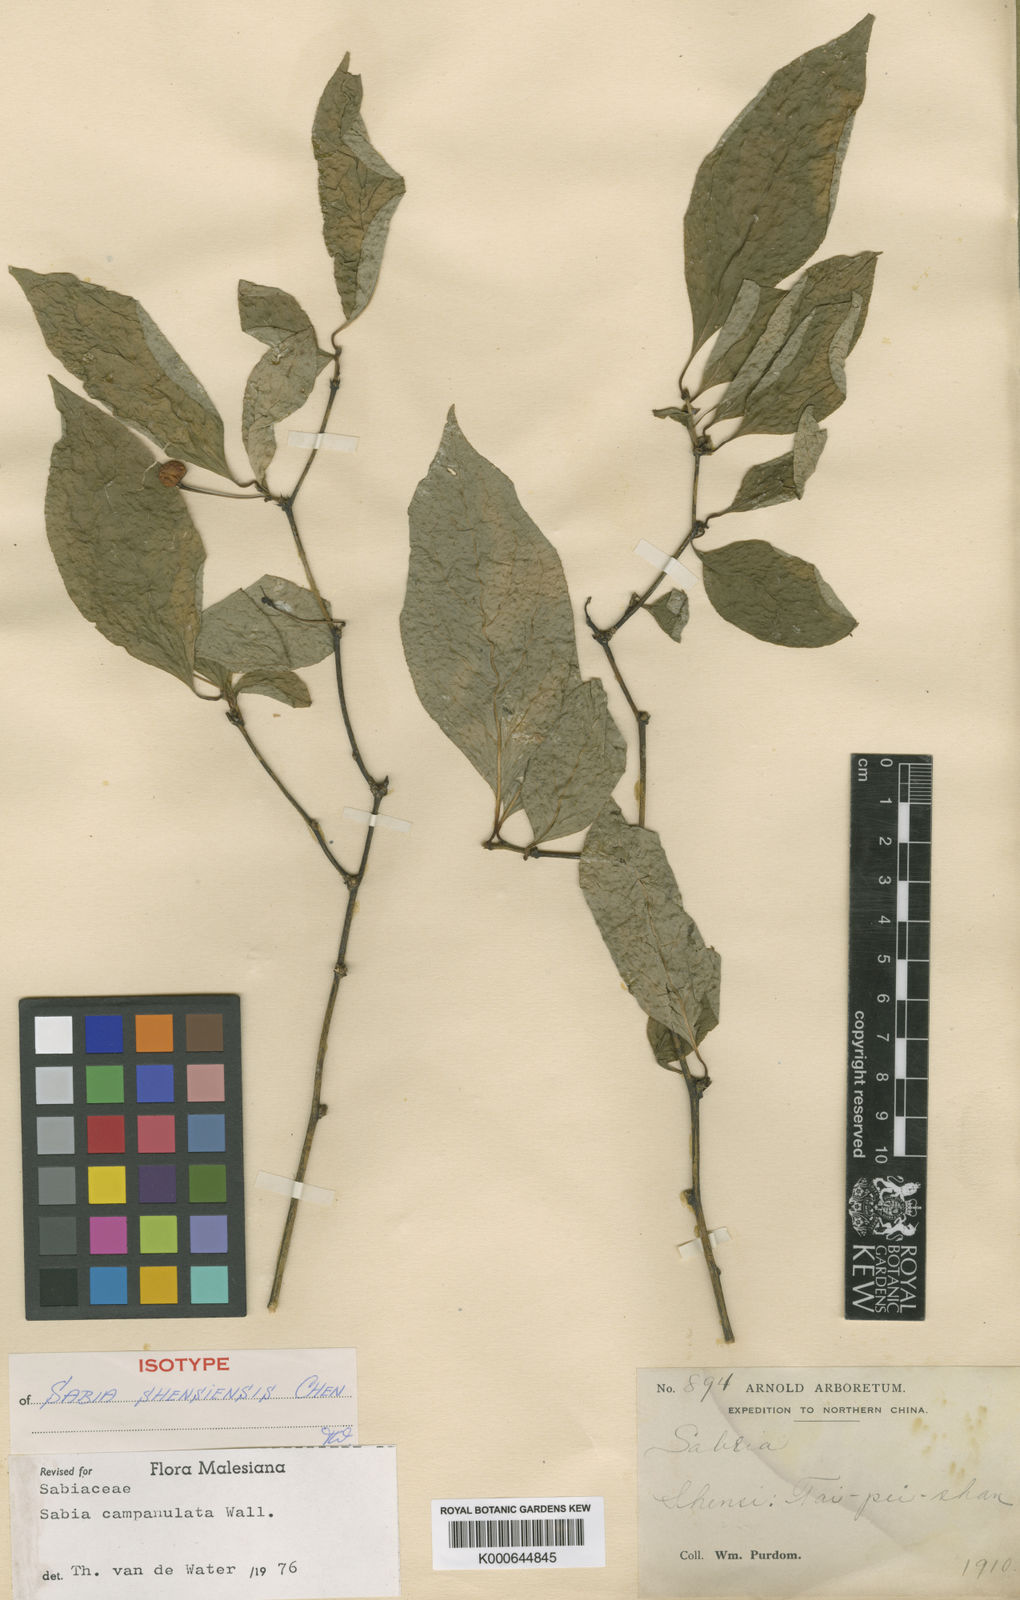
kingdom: Plantae
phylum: Tracheophyta
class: Magnoliopsida
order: Proteales
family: Sabiaceae
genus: Sabia
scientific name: Sabia campanulata
